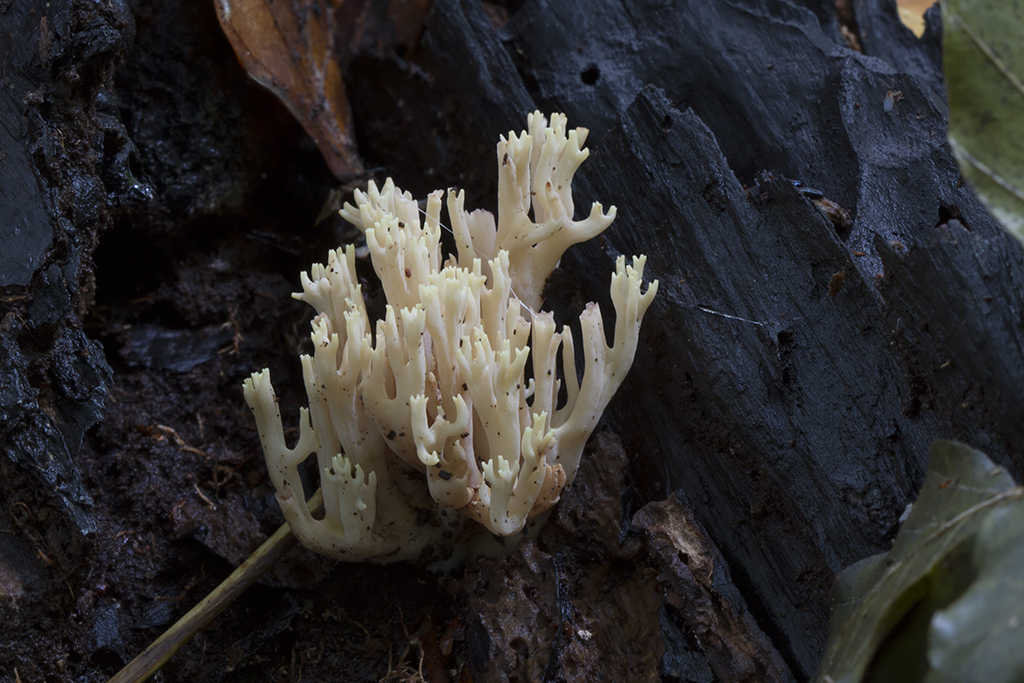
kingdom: Fungi
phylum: Basidiomycota
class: Agaricomycetes
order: Gomphales
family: Gomphaceae
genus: Ramaria
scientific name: Ramaria stricta
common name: rank koralsvamp
